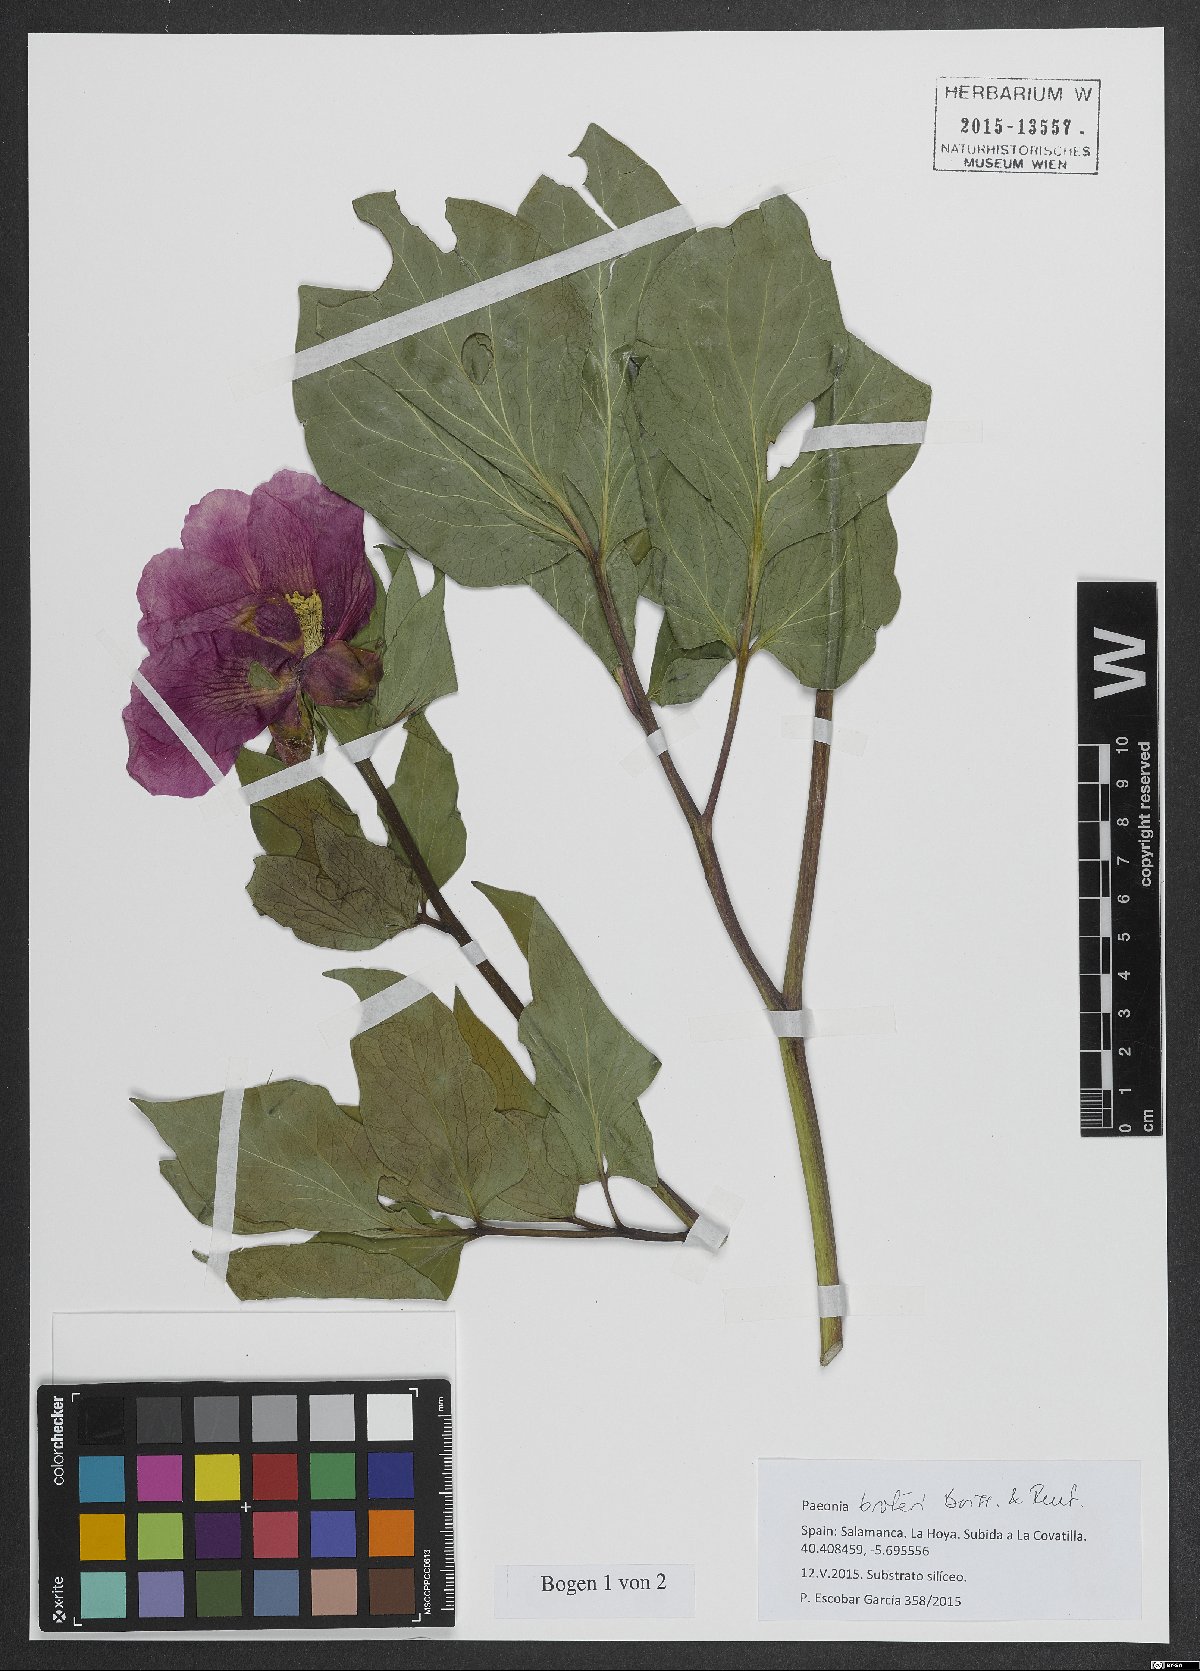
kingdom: Plantae
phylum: Tracheophyta
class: Magnoliopsida
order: Saxifragales
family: Paeoniaceae
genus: Paeonia
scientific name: Paeonia broteroi
